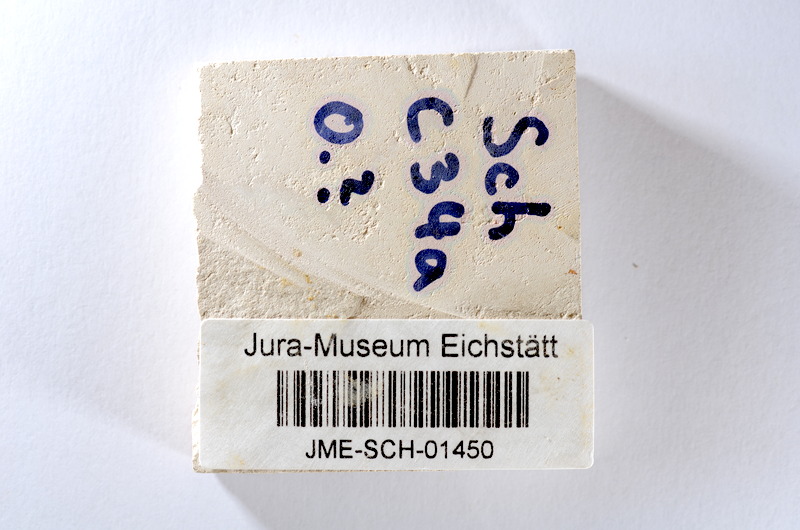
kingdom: Animalia
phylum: Chordata
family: Ascalaboidae
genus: Tharsis
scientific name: Tharsis dubius
